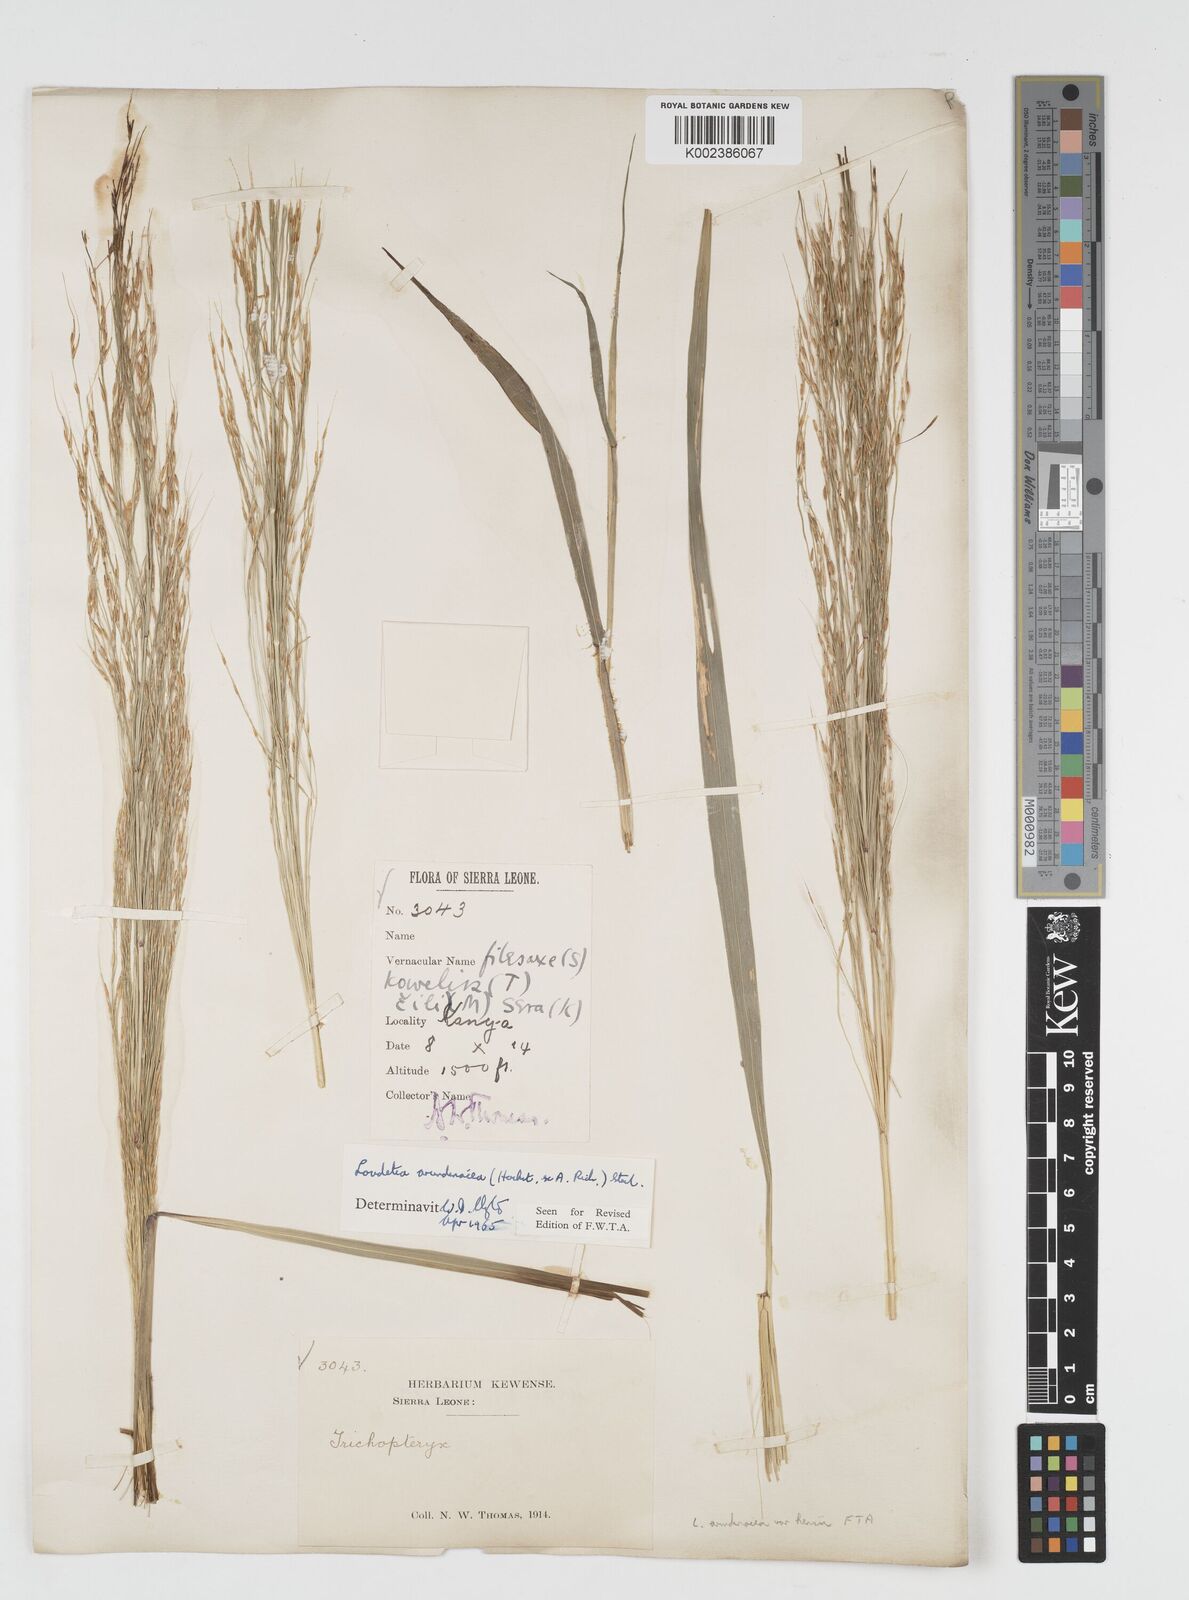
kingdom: Plantae
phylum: Tracheophyta
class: Liliopsida
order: Poales
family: Poaceae
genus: Loudetia
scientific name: Loudetia arundinacea
